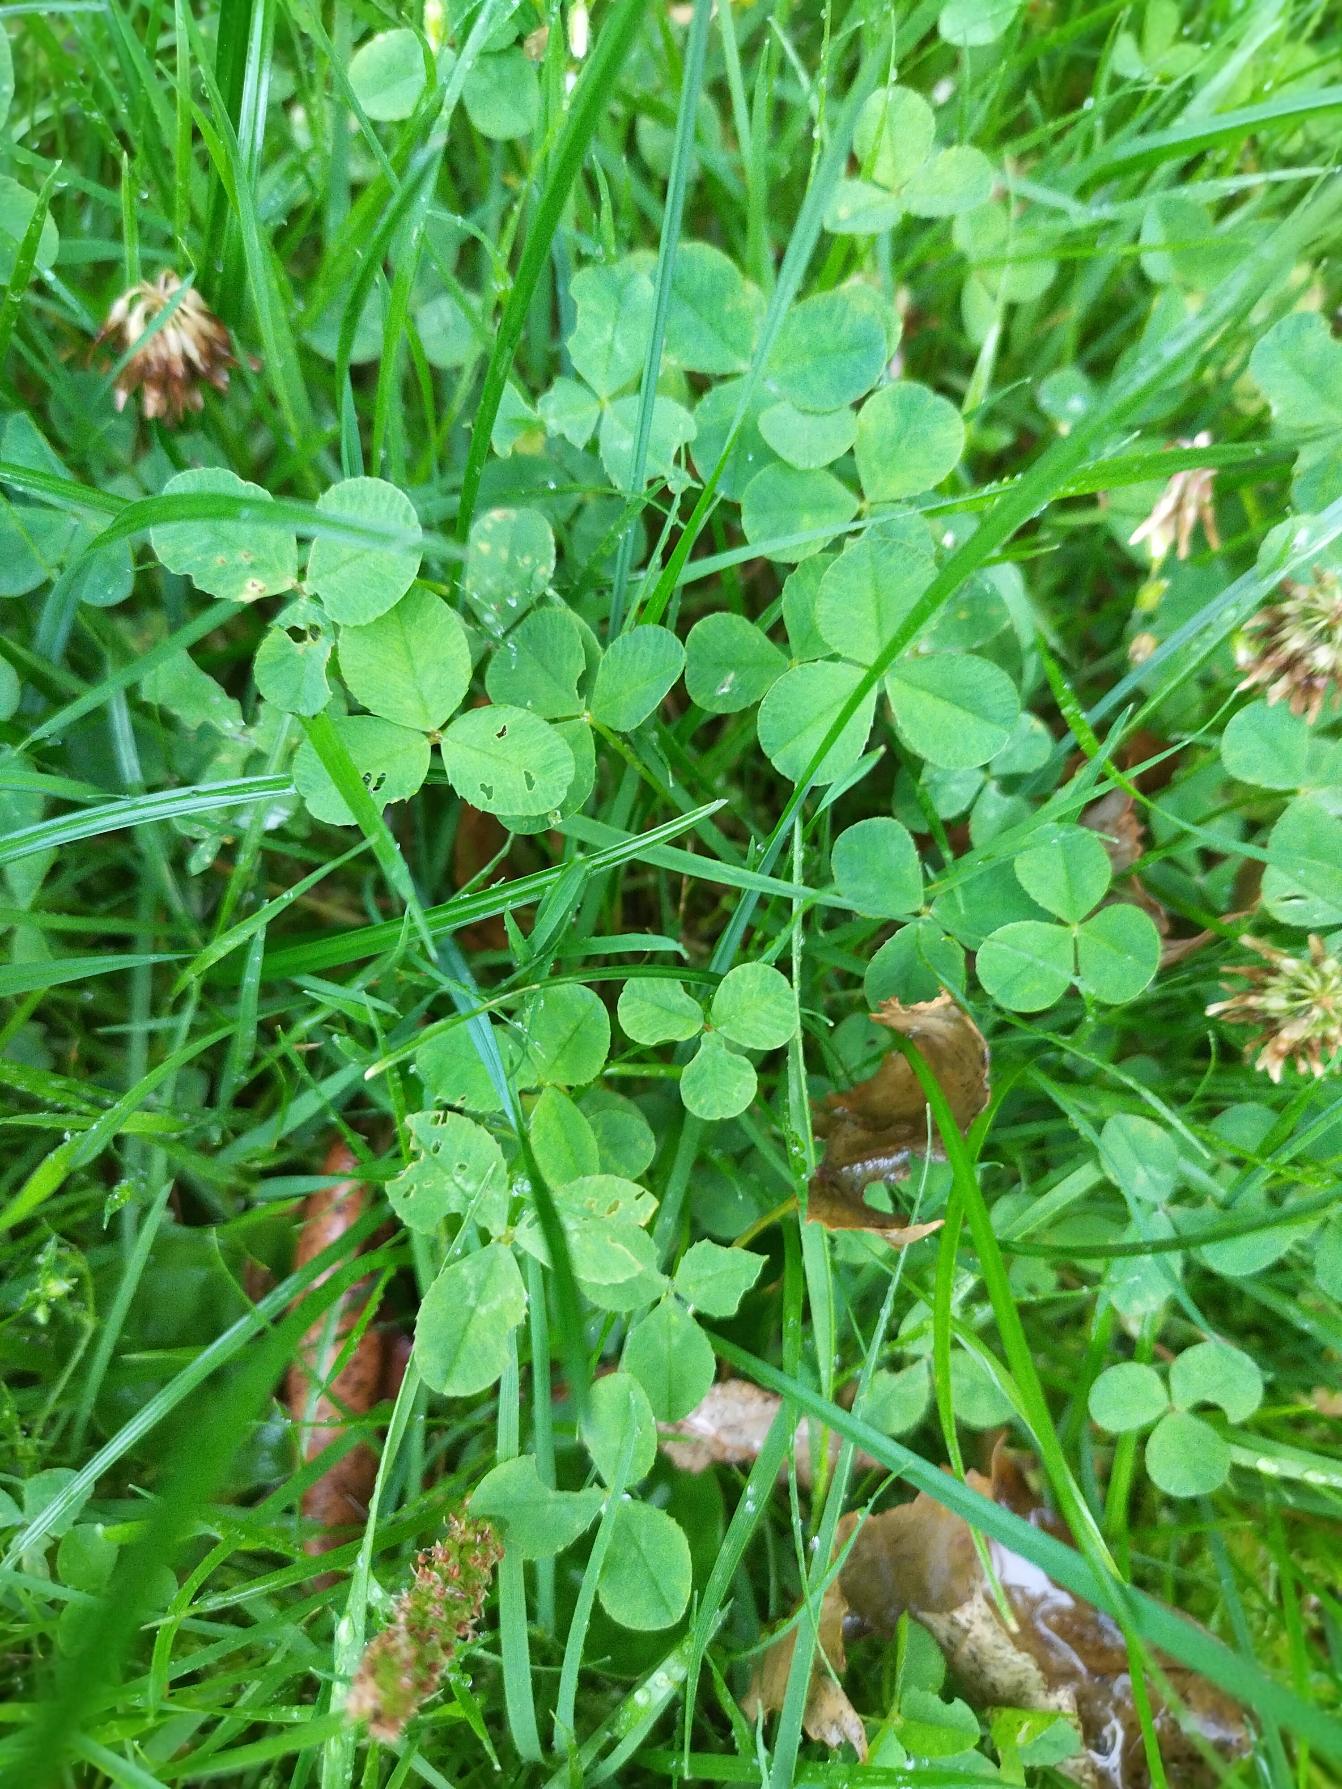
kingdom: Plantae
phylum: Tracheophyta
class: Magnoliopsida
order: Fabales
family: Fabaceae
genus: Trifolium
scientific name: Trifolium repens
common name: Hvid-kløver
